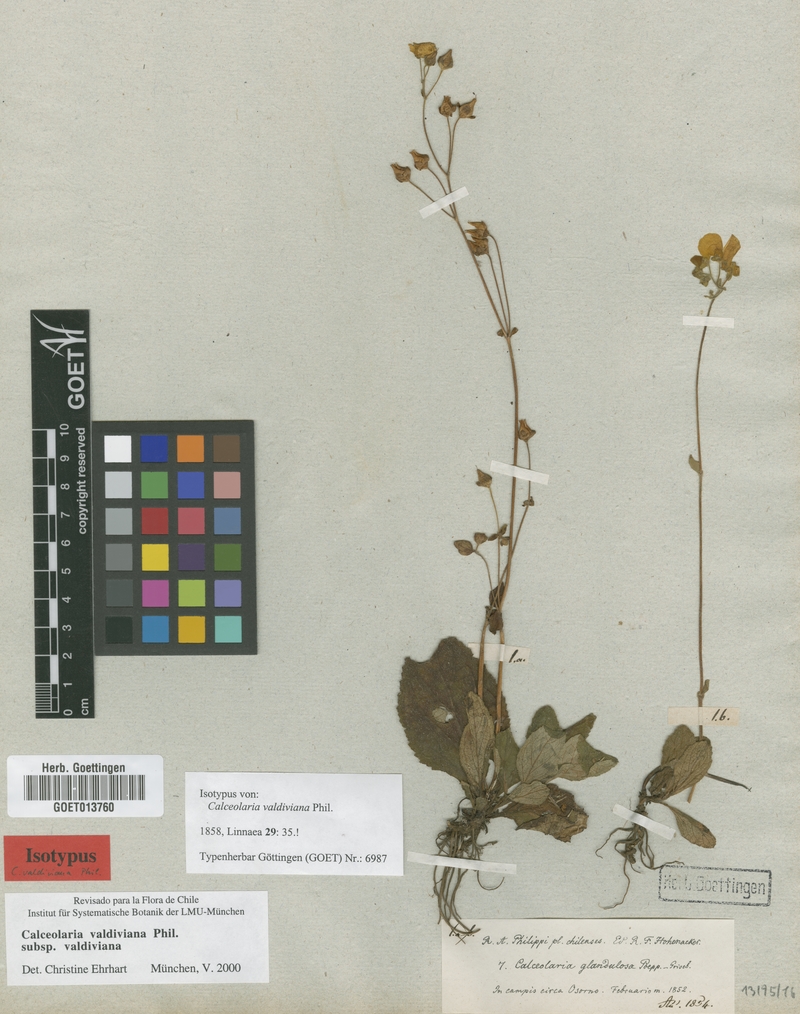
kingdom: Plantae
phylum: Tracheophyta
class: Magnoliopsida
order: Lamiales
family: Calceolariaceae
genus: Calceolaria
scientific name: Calceolaria valdiviana
